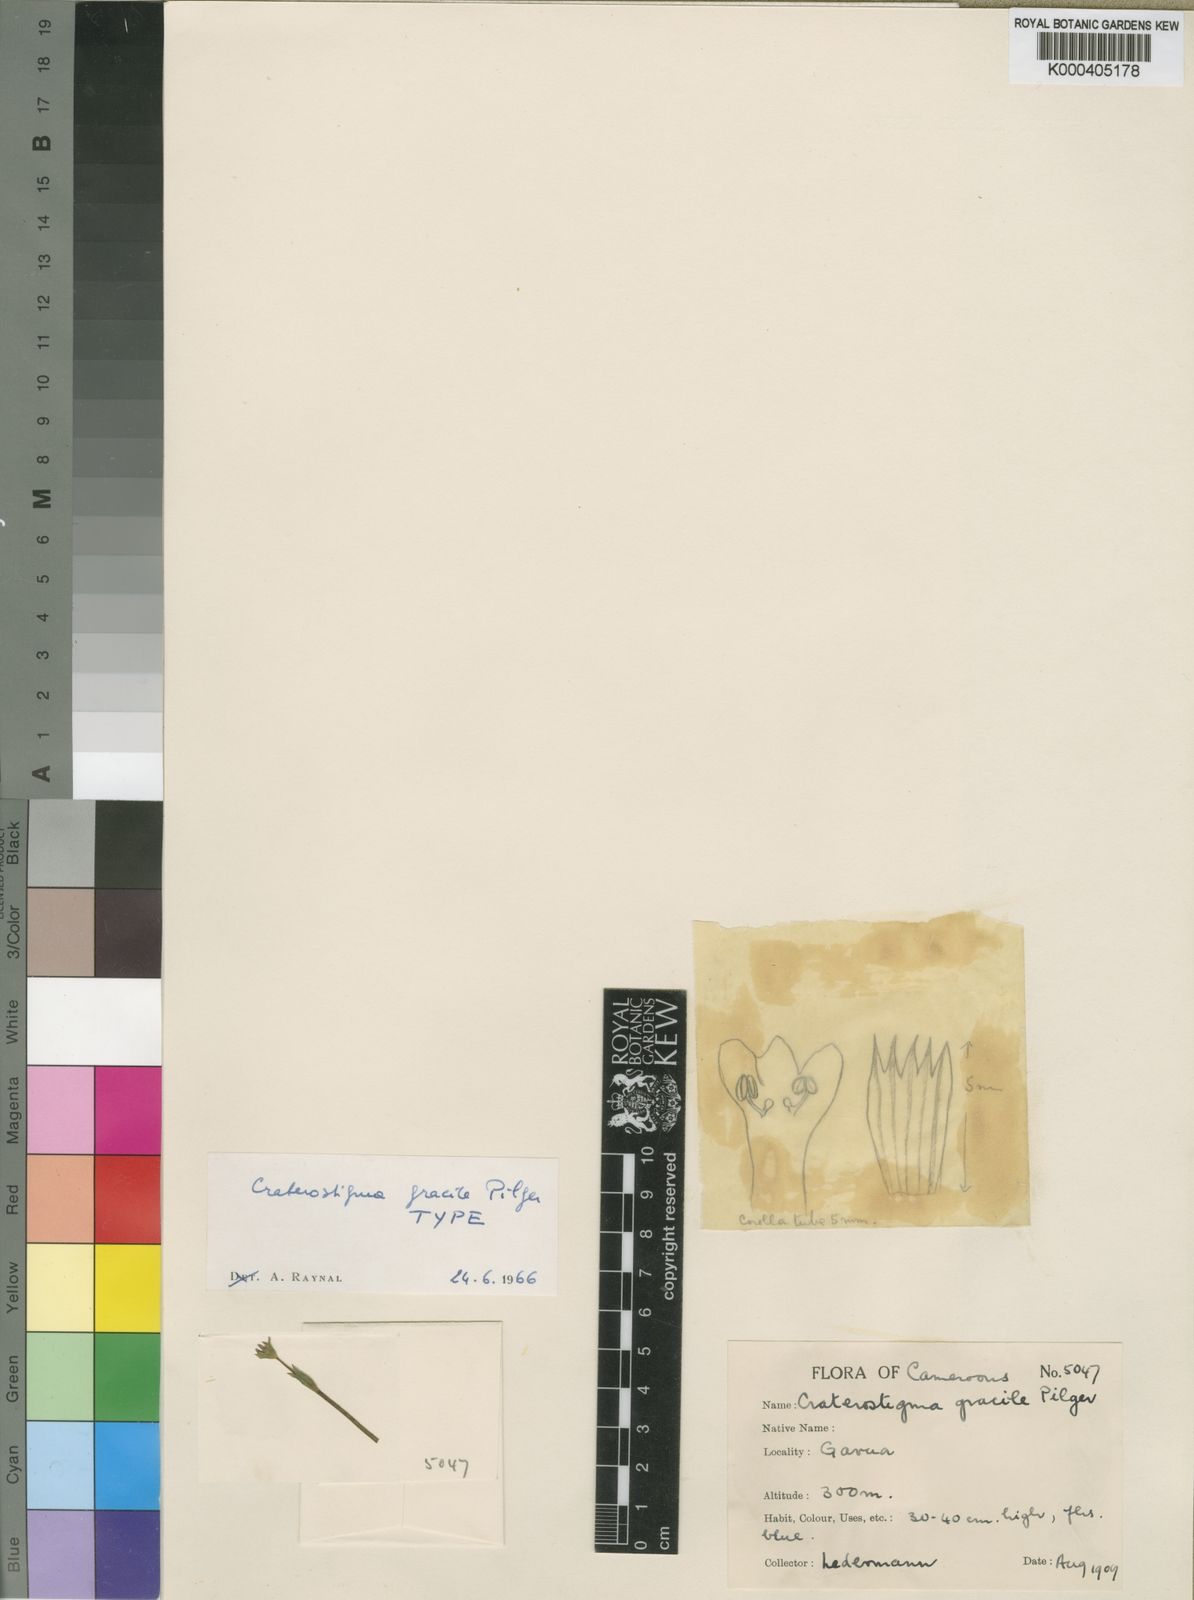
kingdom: Plantae
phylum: Tracheophyta
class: Magnoliopsida
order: Lamiales
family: Linderniaceae
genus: Crepidorhopalon
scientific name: Crepidorhopalon gracilis
